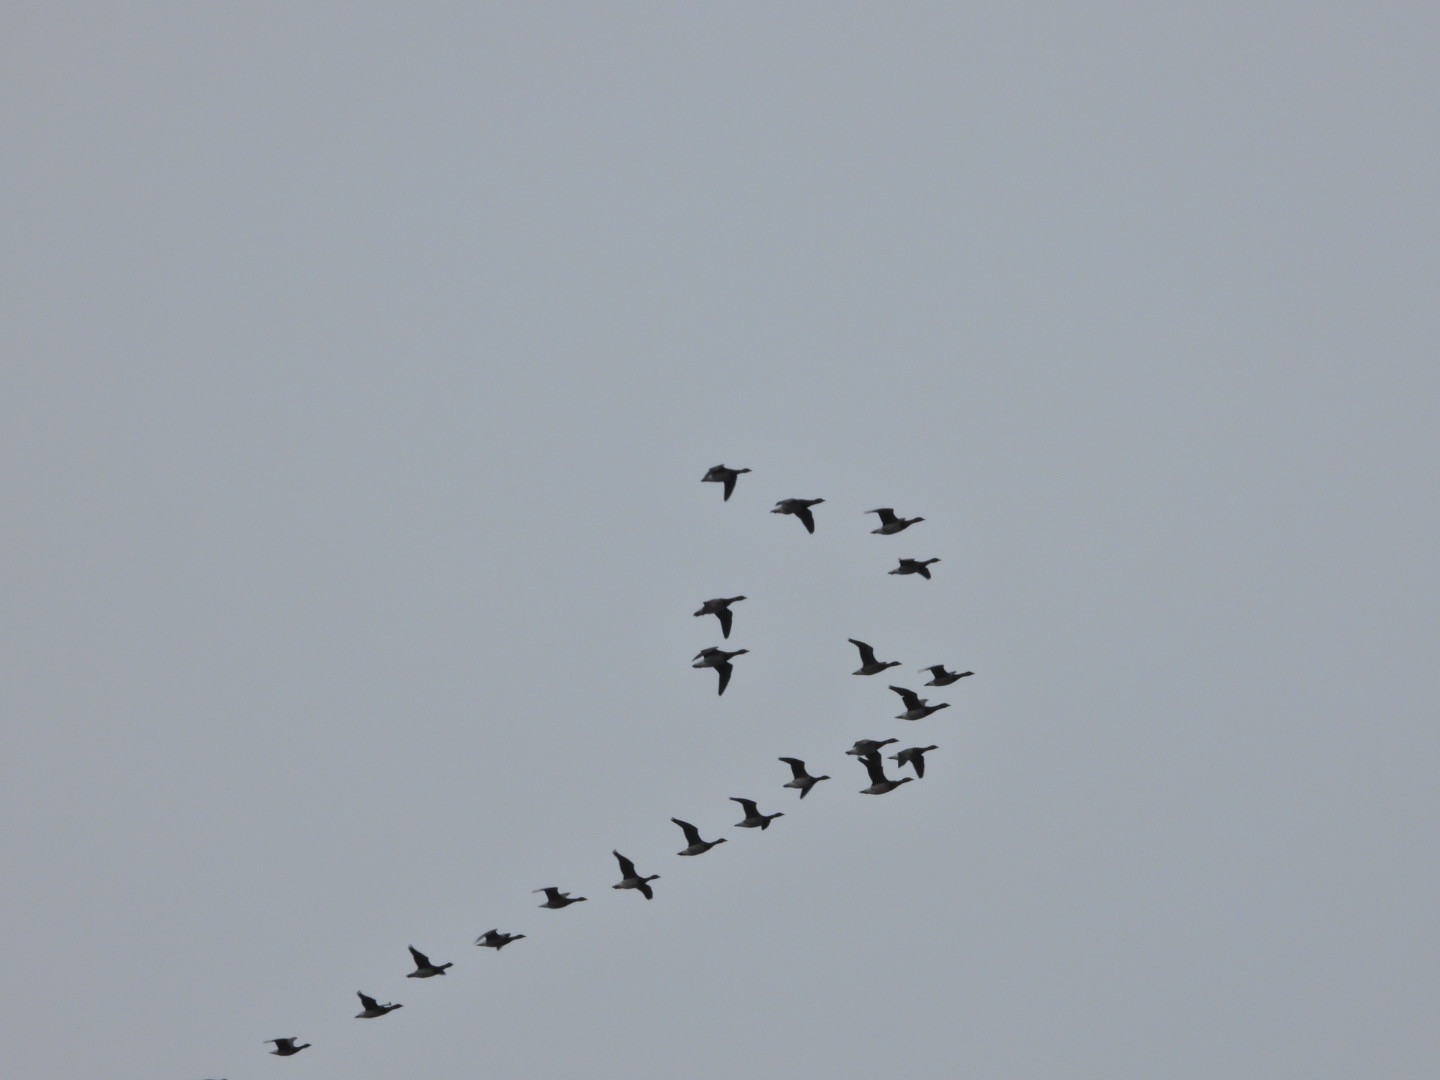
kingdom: Animalia
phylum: Chordata
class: Aves
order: Anseriformes
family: Anatidae
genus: Branta
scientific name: Branta bernicla
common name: Knortegås
